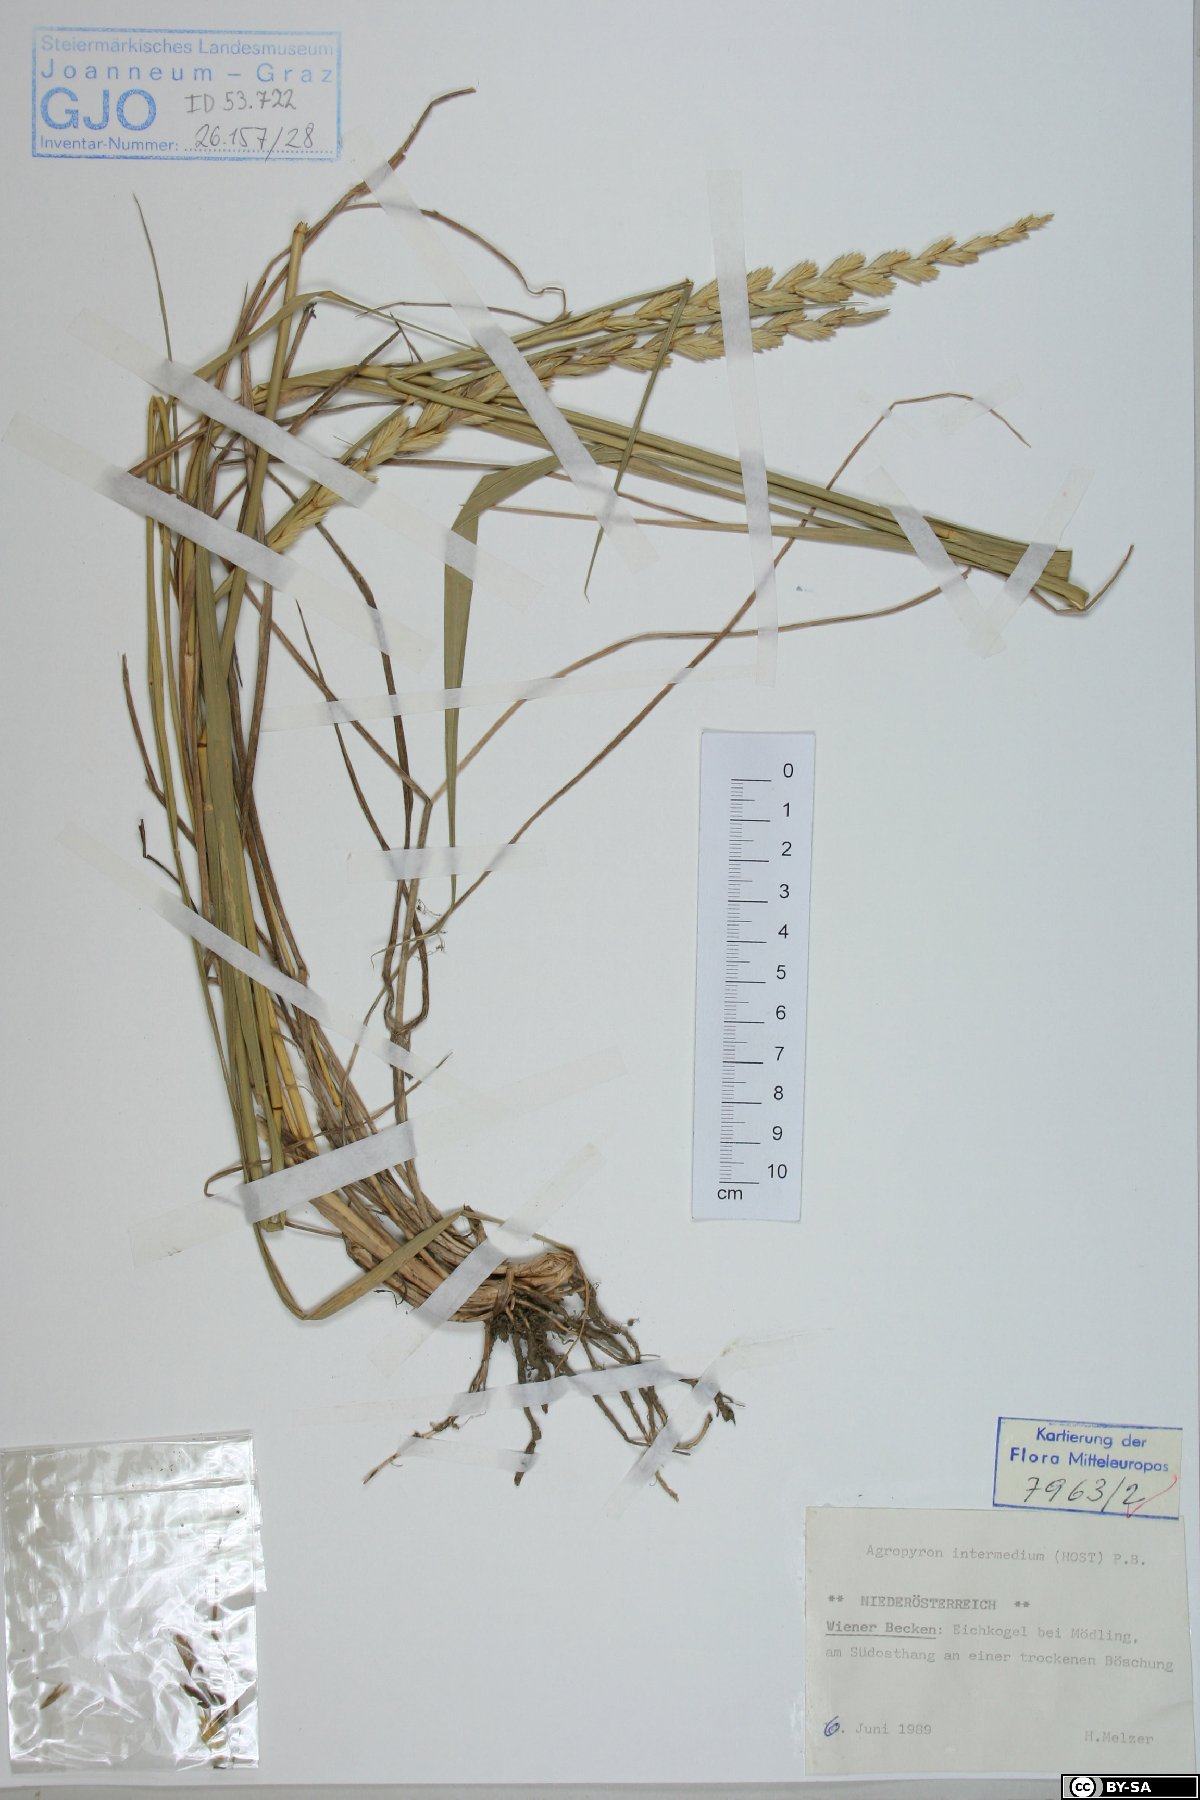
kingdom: Plantae
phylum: Tracheophyta
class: Liliopsida
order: Poales
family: Poaceae
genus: Thinopyrum
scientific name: Thinopyrum intermedium
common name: Intermediate wheatgrass
